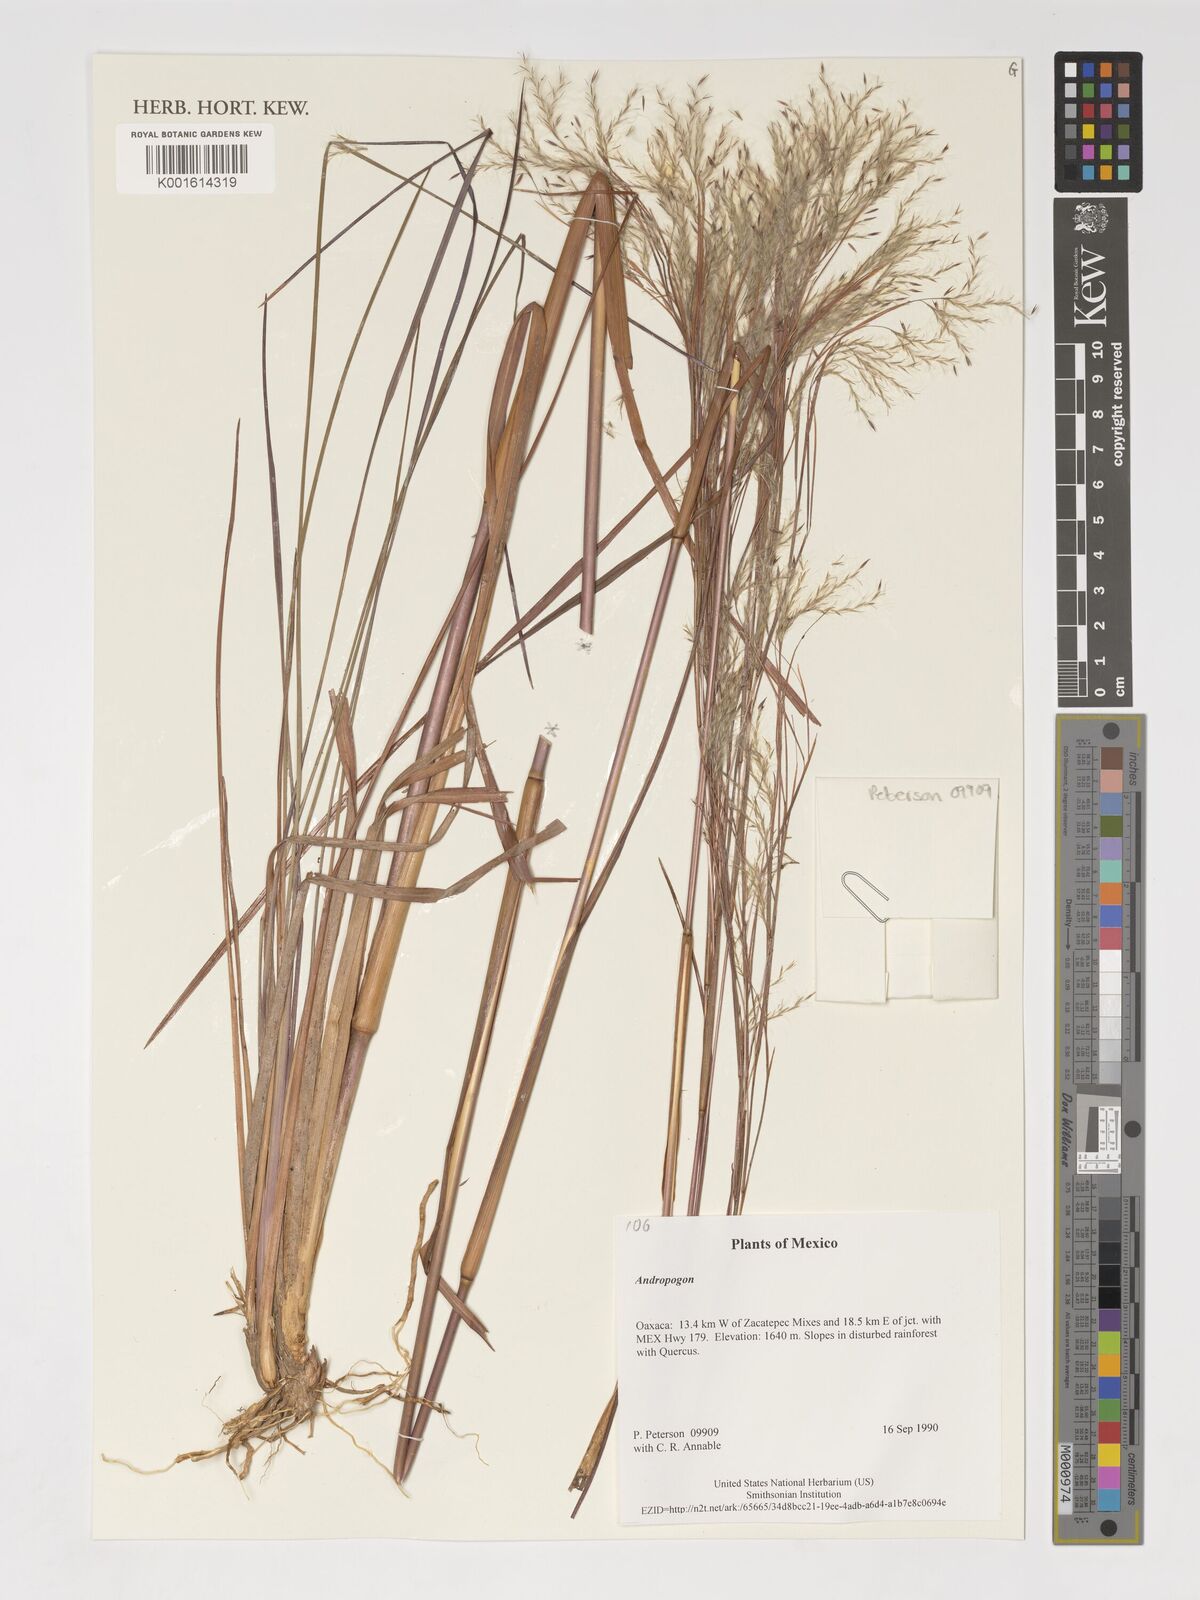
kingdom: Plantae
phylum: Tracheophyta
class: Liliopsida
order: Poales
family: Poaceae
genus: Andropogon
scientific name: Andropogon
